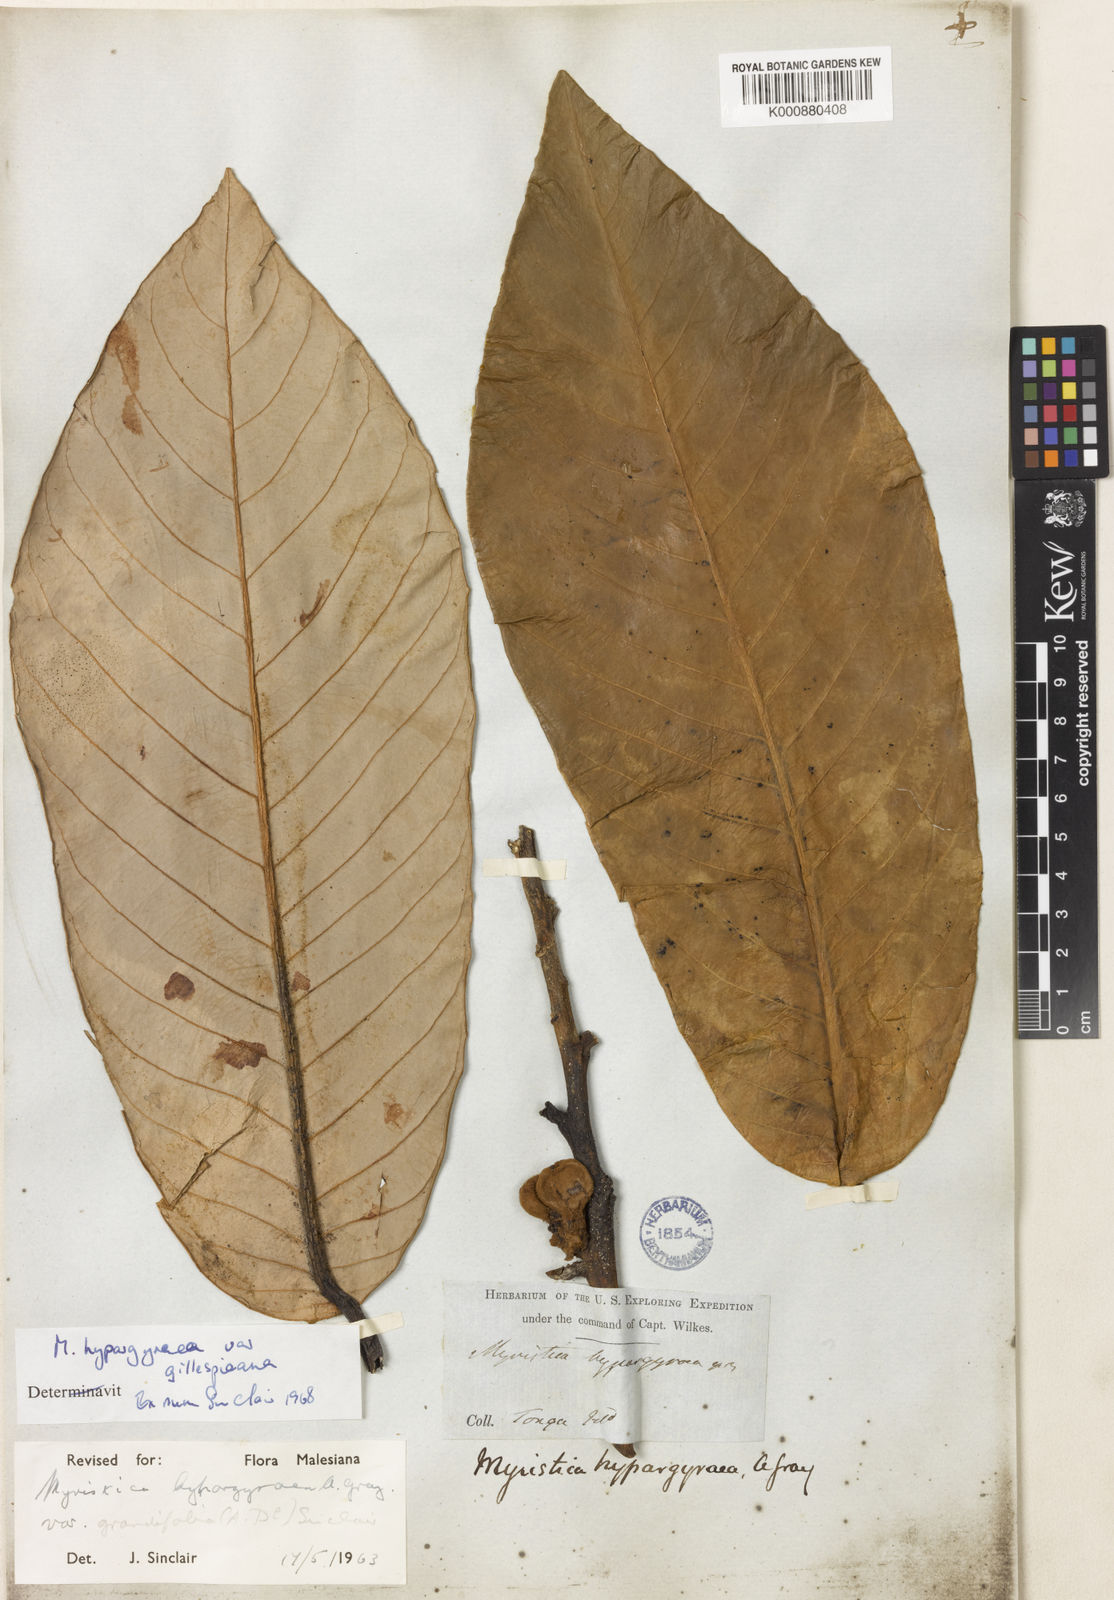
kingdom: Plantae
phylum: Tracheophyta
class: Magnoliopsida
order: Magnoliales
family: Myristicaceae
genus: Myristica
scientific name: Myristica hypargyraea
